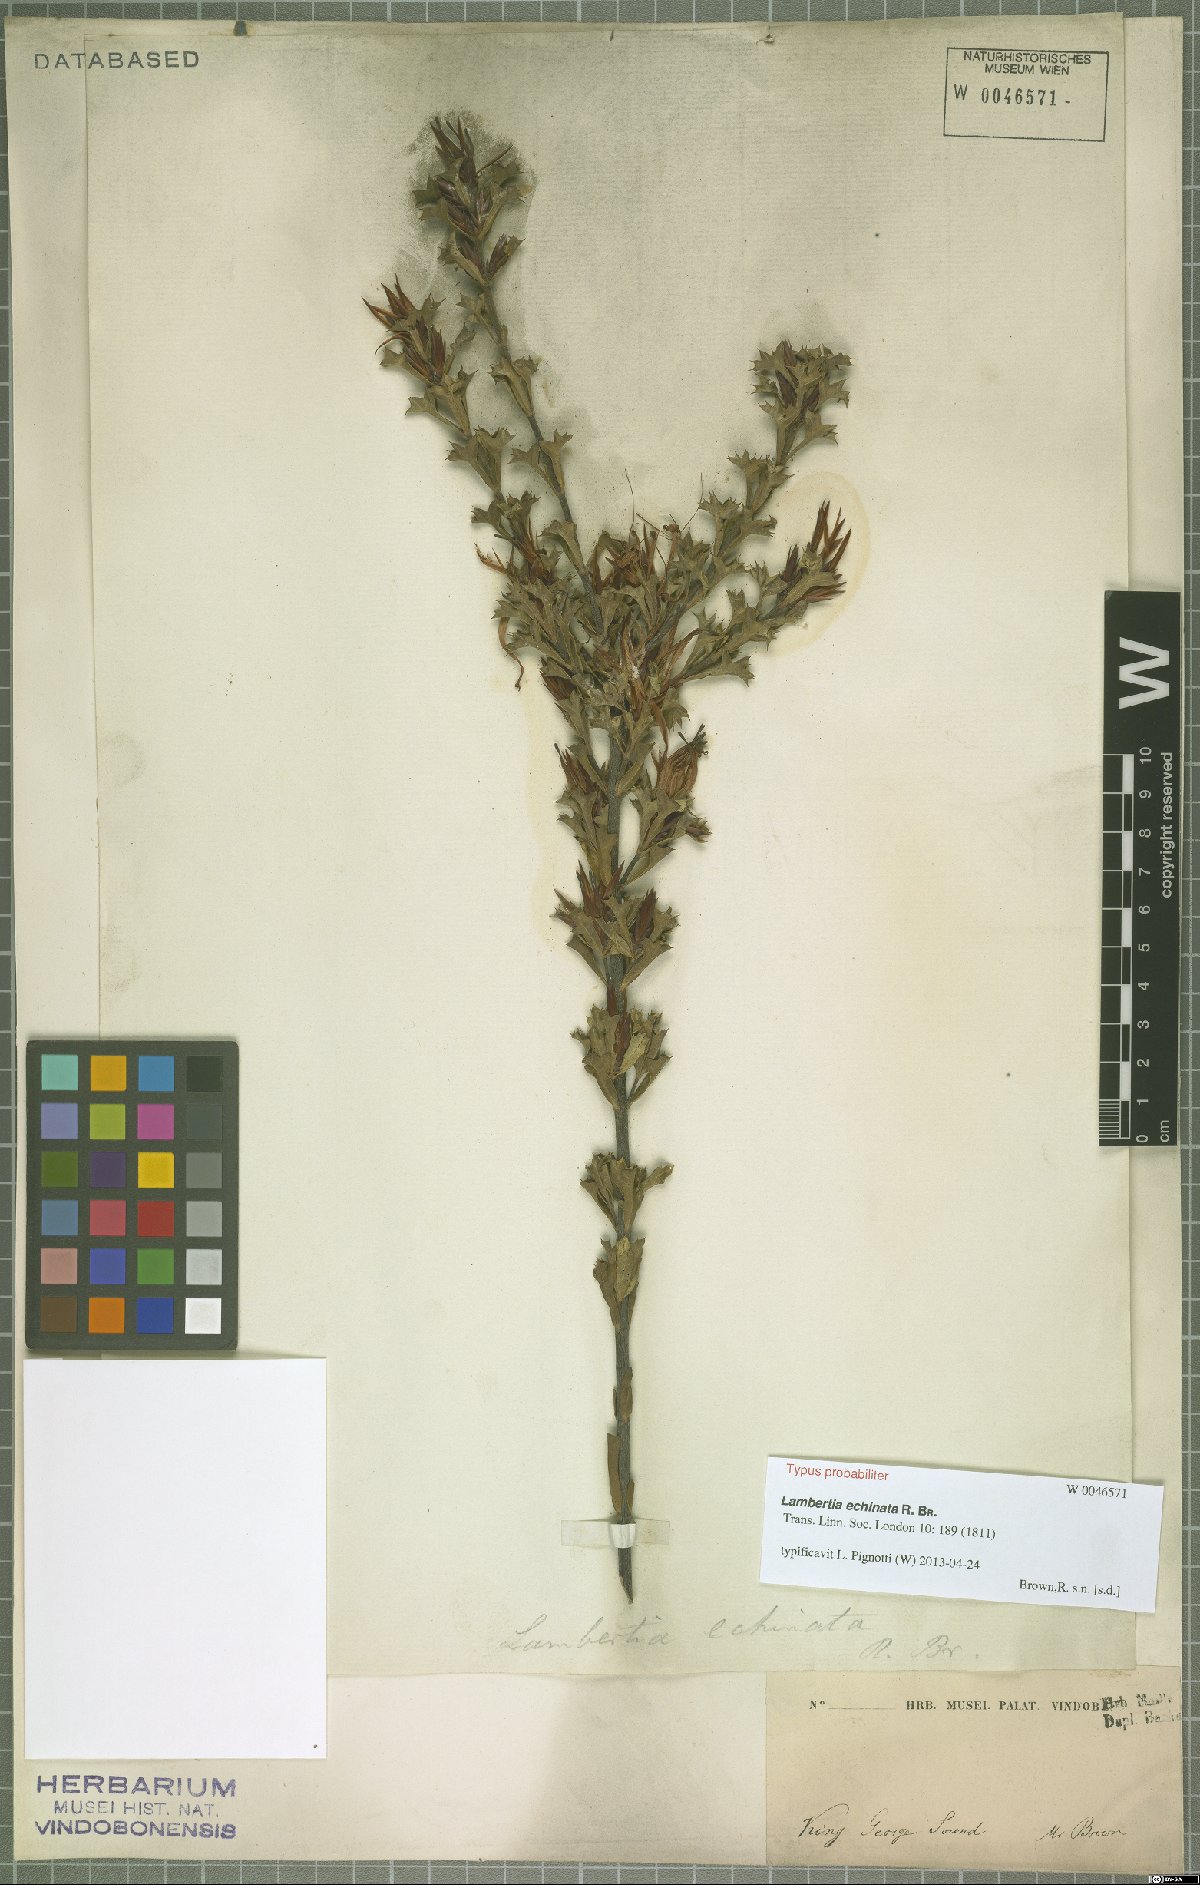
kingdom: Plantae
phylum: Tracheophyta
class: Magnoliopsida
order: Proteales
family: Proteaceae
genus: Lambertia
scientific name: Lambertia echinata
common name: Prickly honeysuckle
